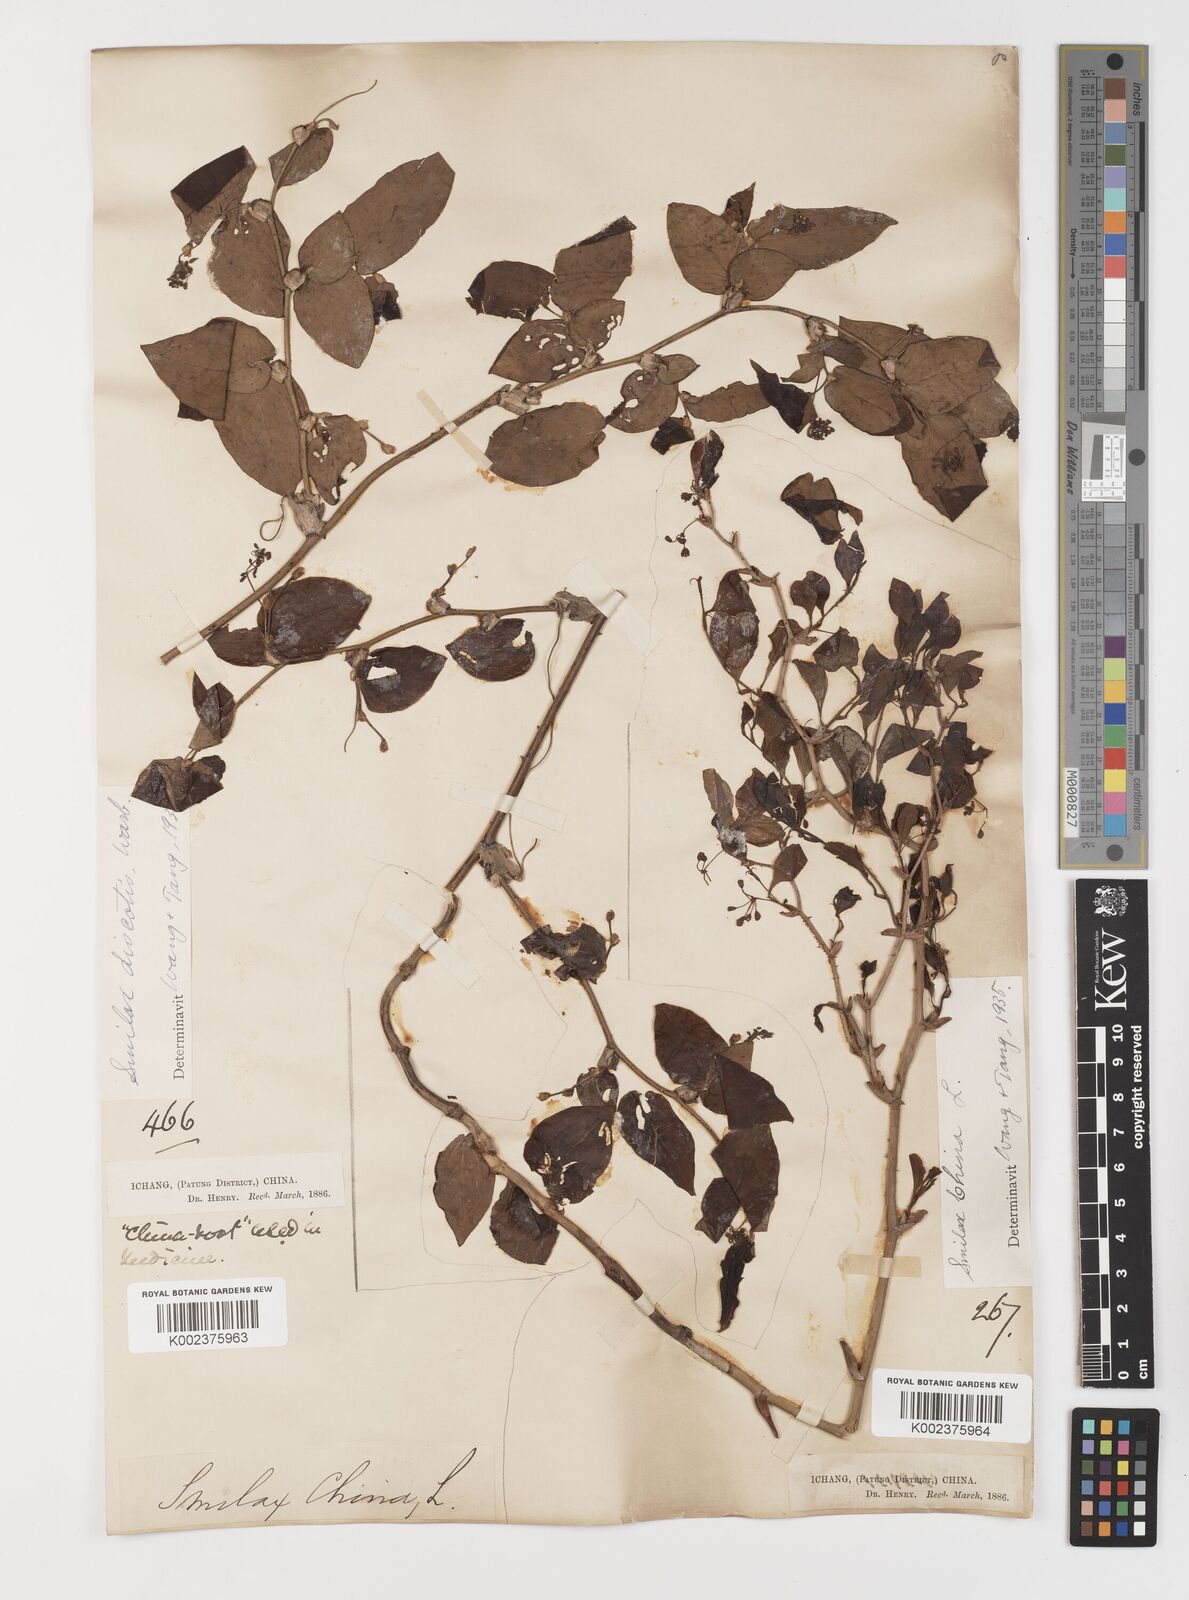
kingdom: Plantae
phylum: Tracheophyta
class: Liliopsida
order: Liliales
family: Smilacaceae
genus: Smilax
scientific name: Smilax glaucochina
